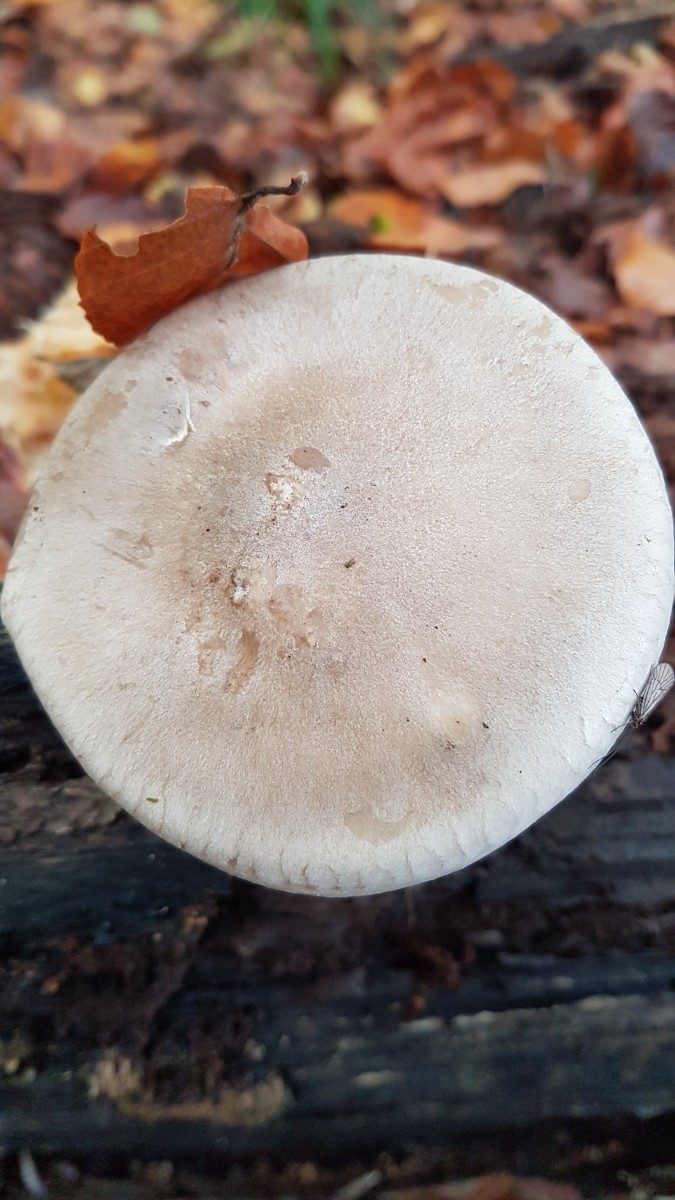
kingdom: Fungi
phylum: Basidiomycota
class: Agaricomycetes
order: Agaricales
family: Tricholomataceae
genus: Clitocybe
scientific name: Clitocybe nebularis
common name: tåge-tragthat
